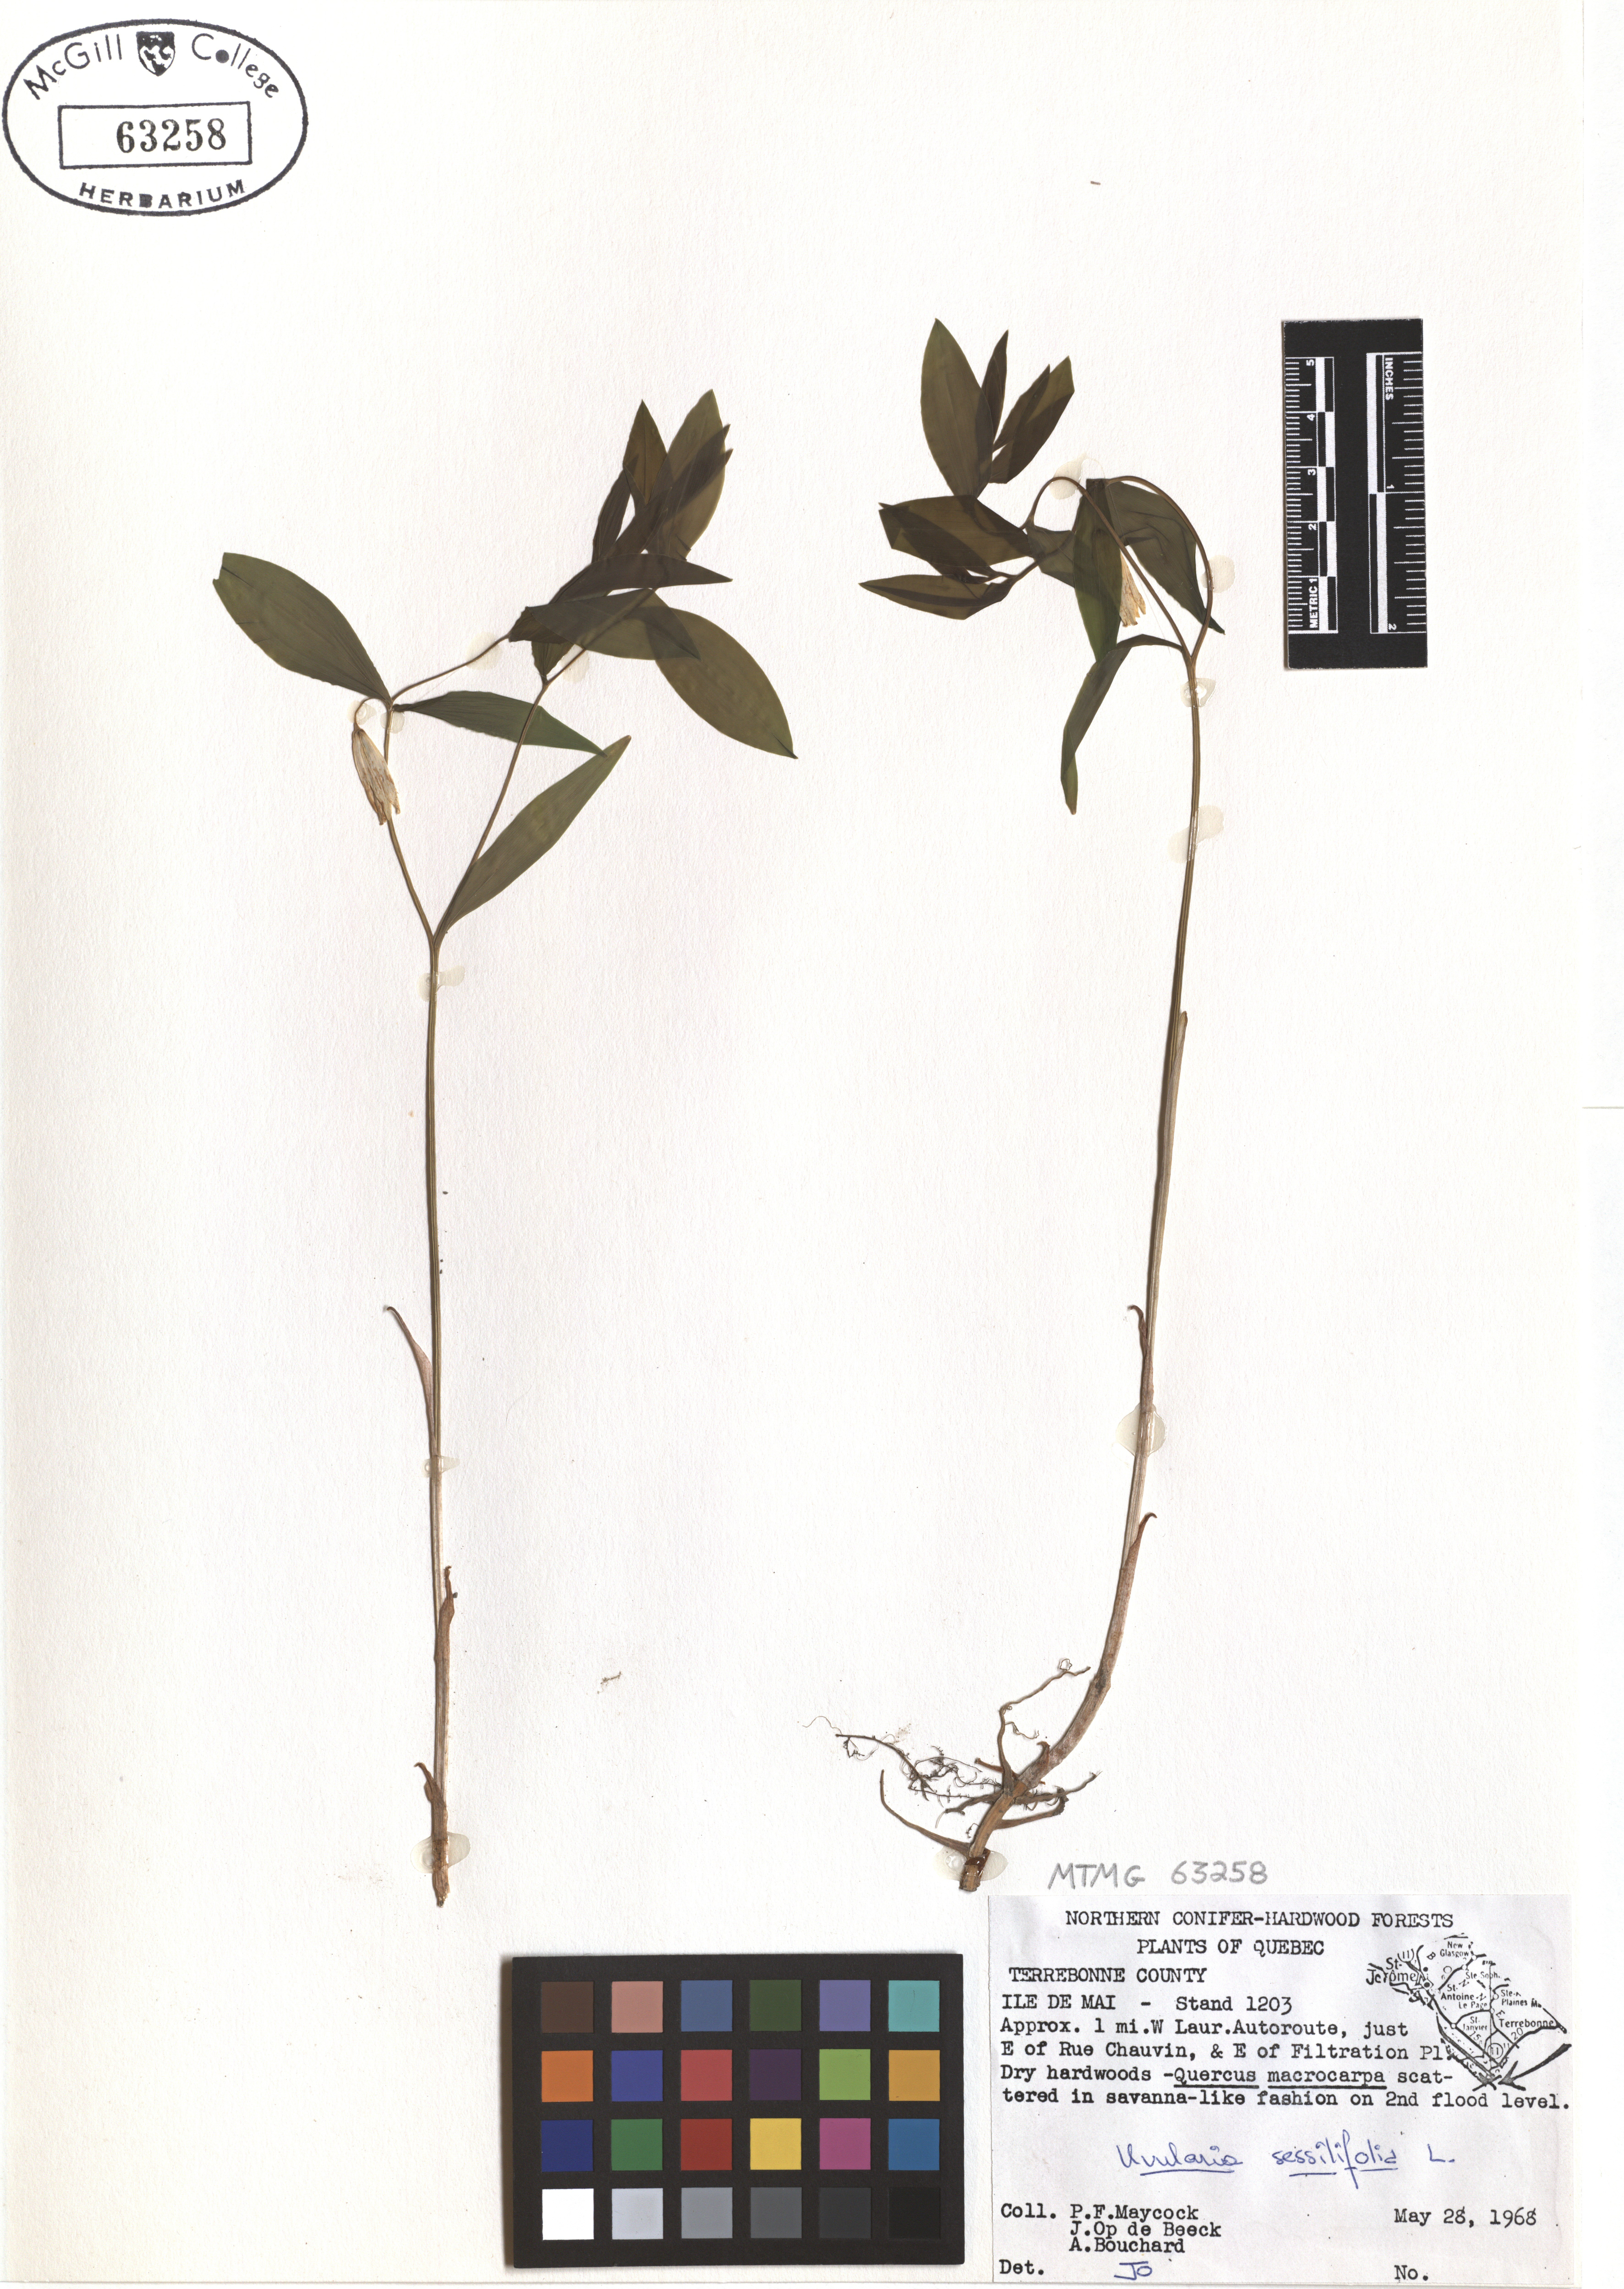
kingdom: Plantae
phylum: Tracheophyta
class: Liliopsida
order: Liliales
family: Colchicaceae
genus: Uvularia
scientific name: Uvularia sessilifolia
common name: Straw-lily
